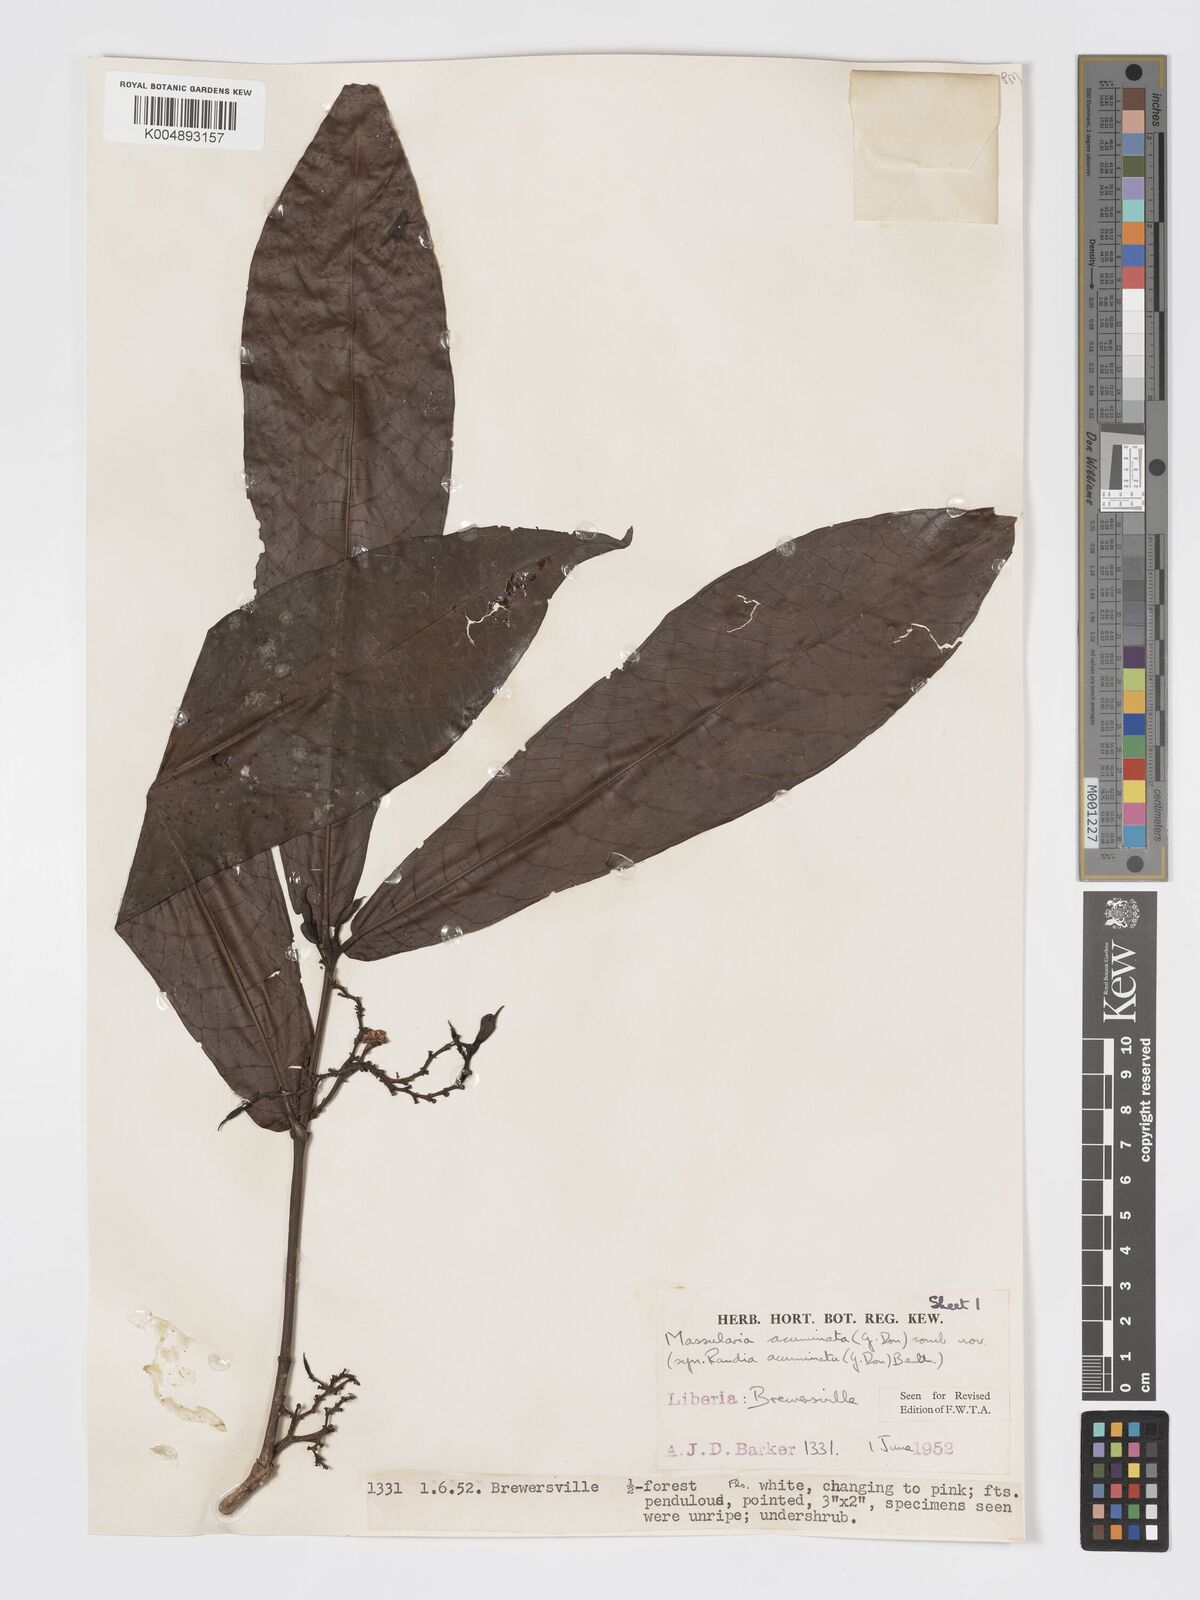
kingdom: Plantae
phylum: Tracheophyta
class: Magnoliopsida
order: Gentianales
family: Rubiaceae
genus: Massularia
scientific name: Massularia acuminata
